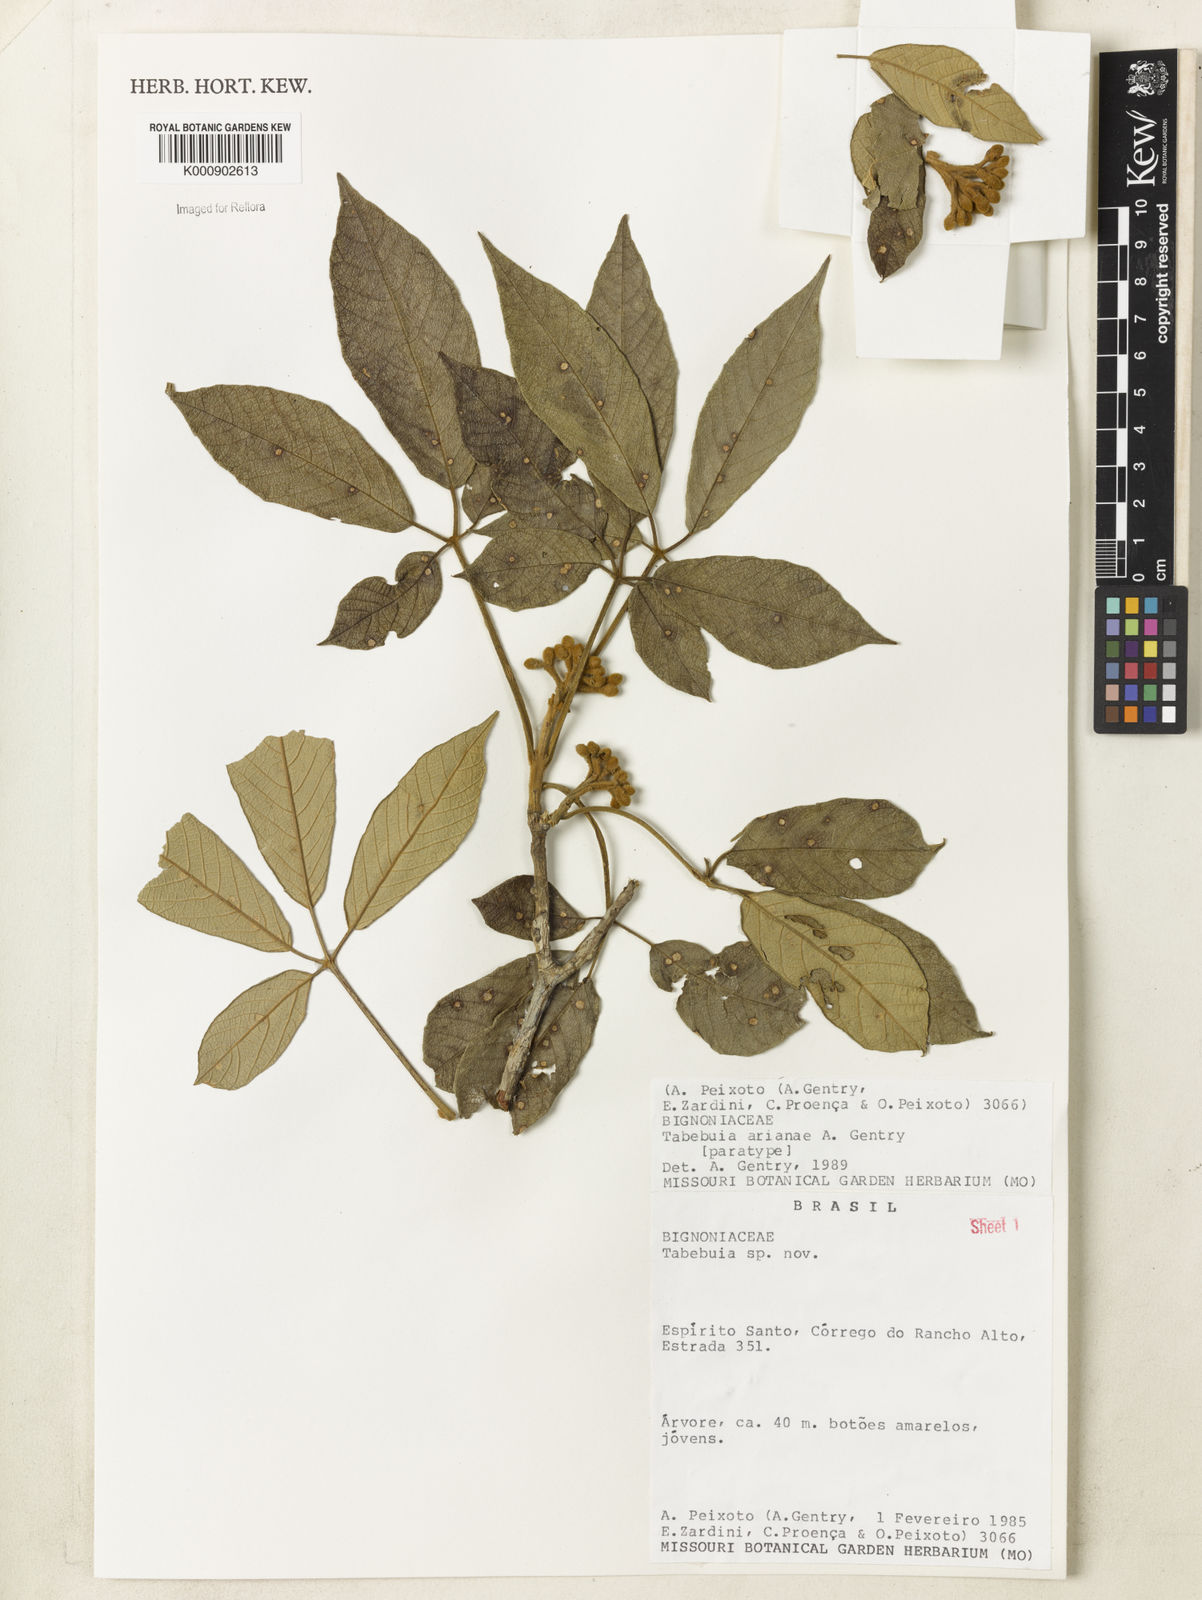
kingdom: Plantae
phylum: Tracheophyta
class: Magnoliopsida
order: Lamiales
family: Bignoniaceae
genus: Handroanthus
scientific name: Handroanthus arianeae
